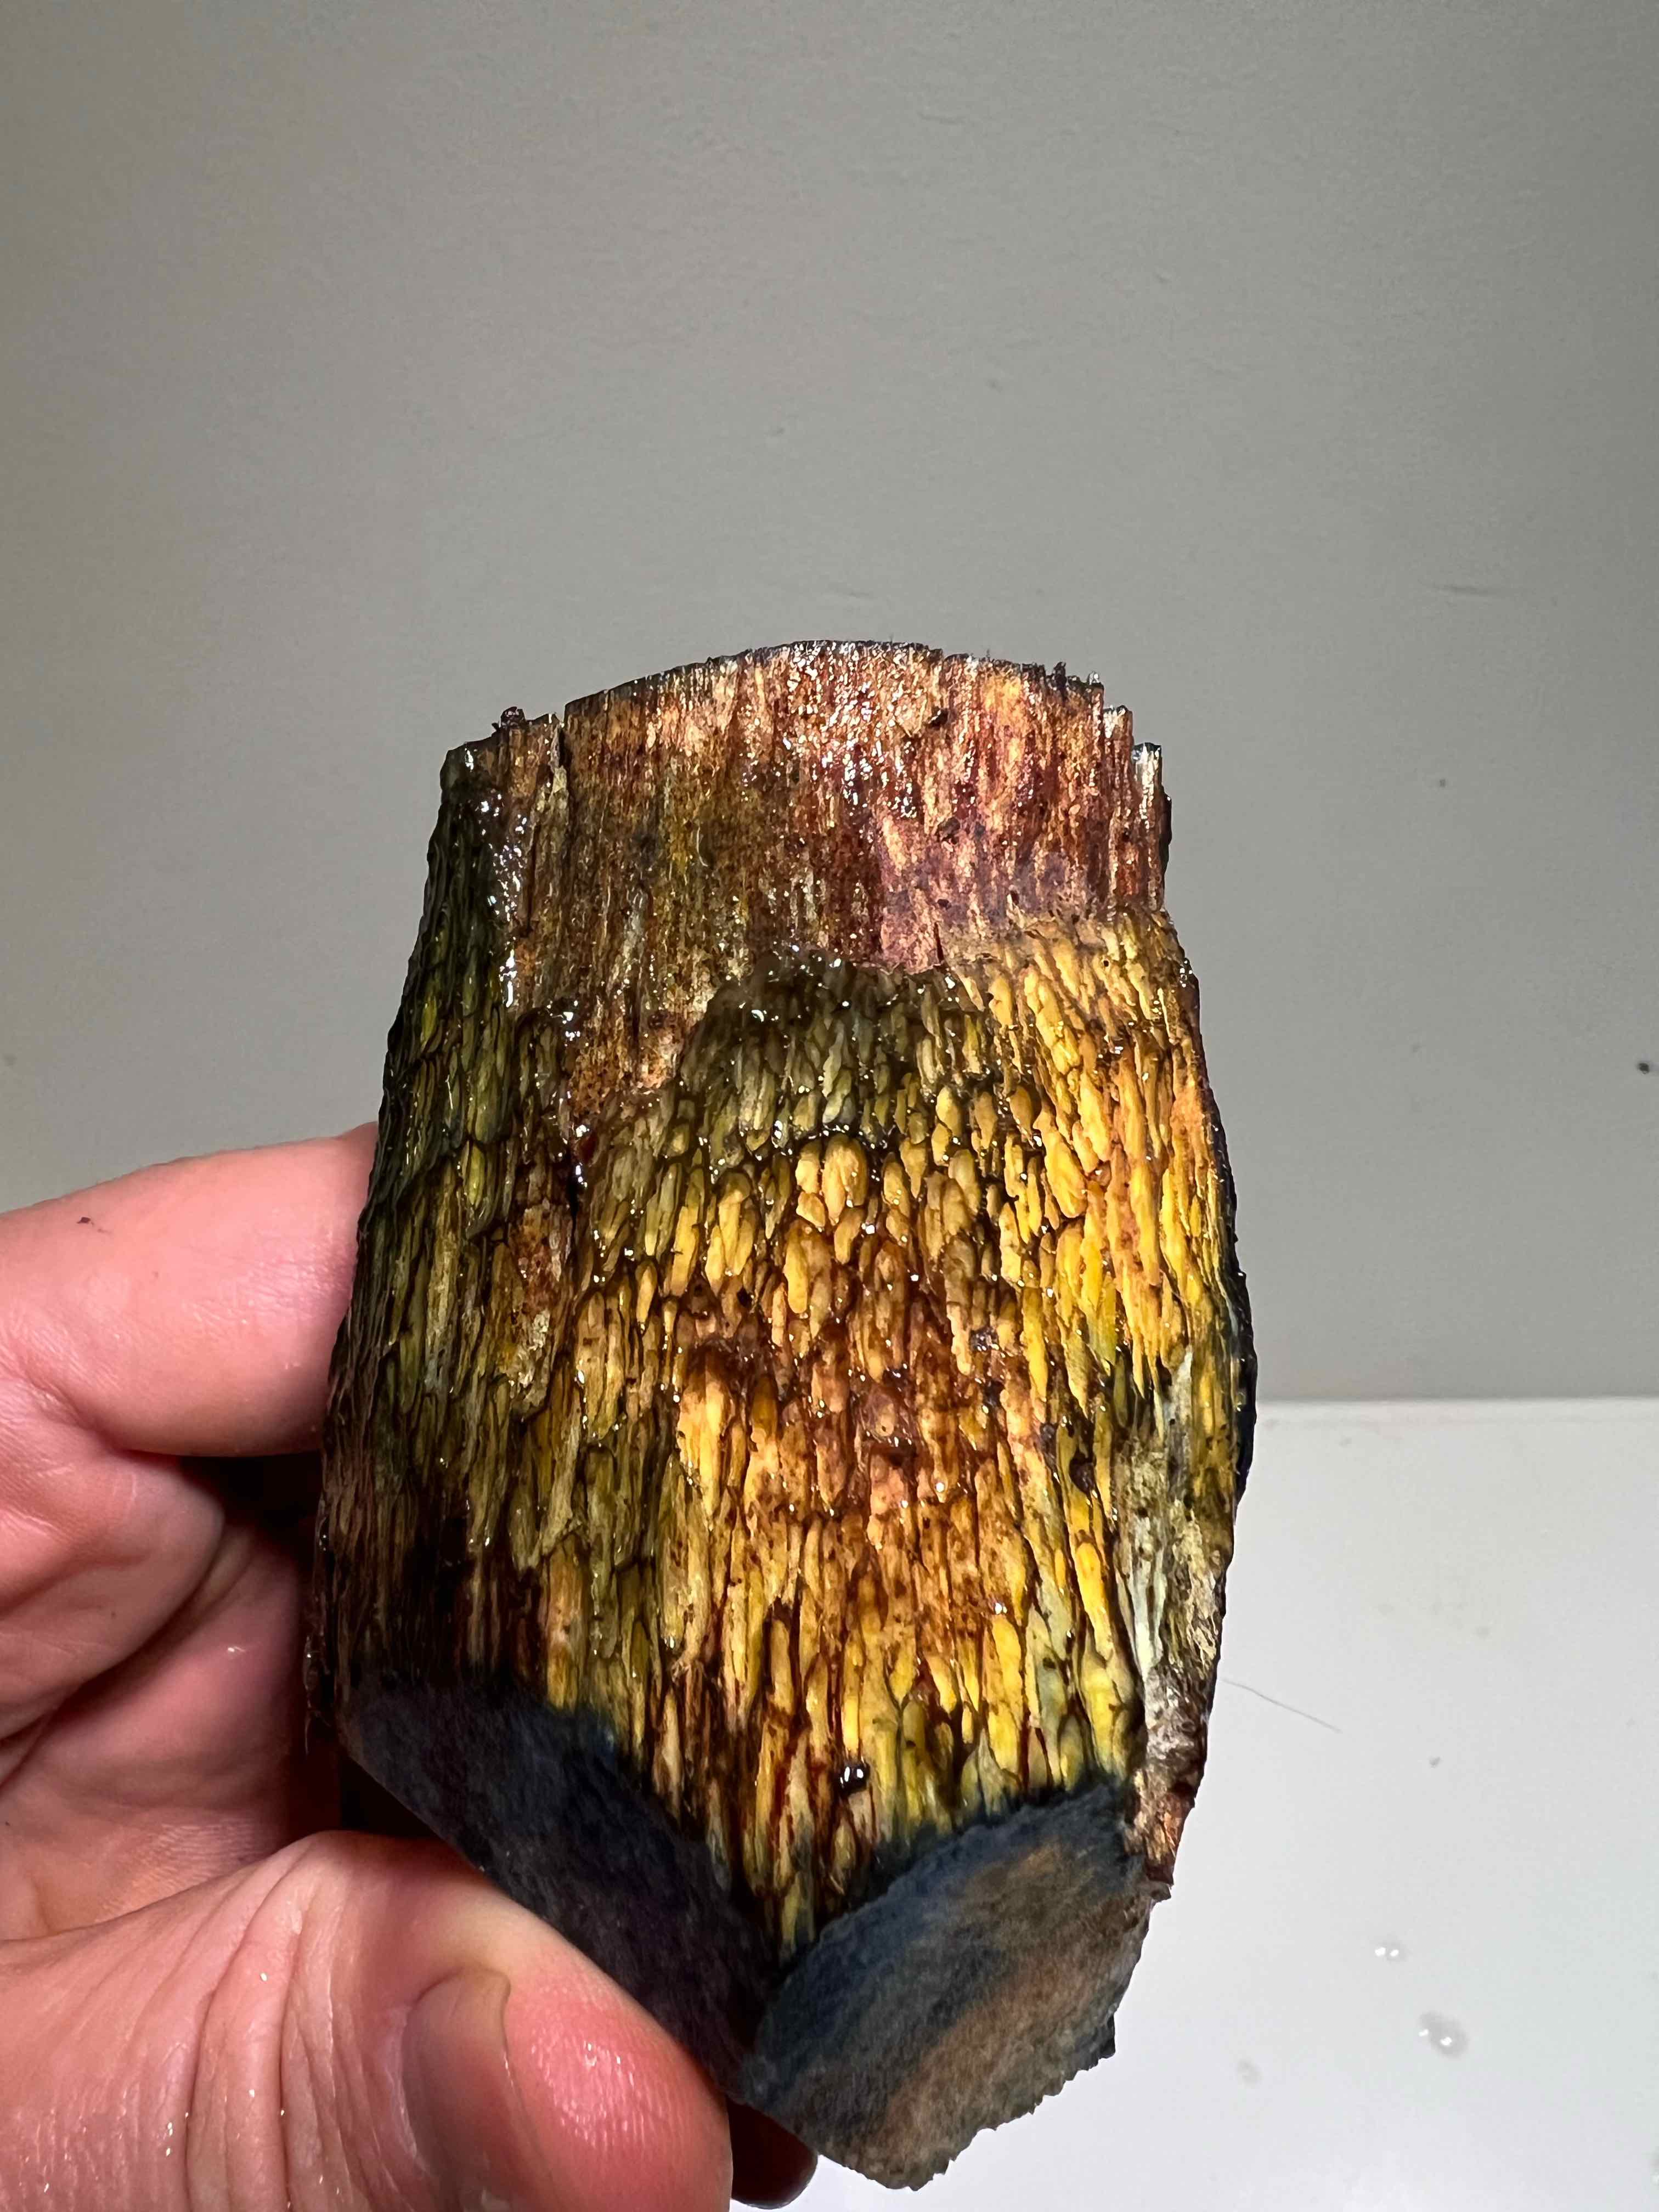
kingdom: Fungi
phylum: Basidiomycota
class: Agaricomycetes
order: Boletales
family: Boletaceae
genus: Suillellus
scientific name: Suillellus luridus
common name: netstokket indigorørhat
